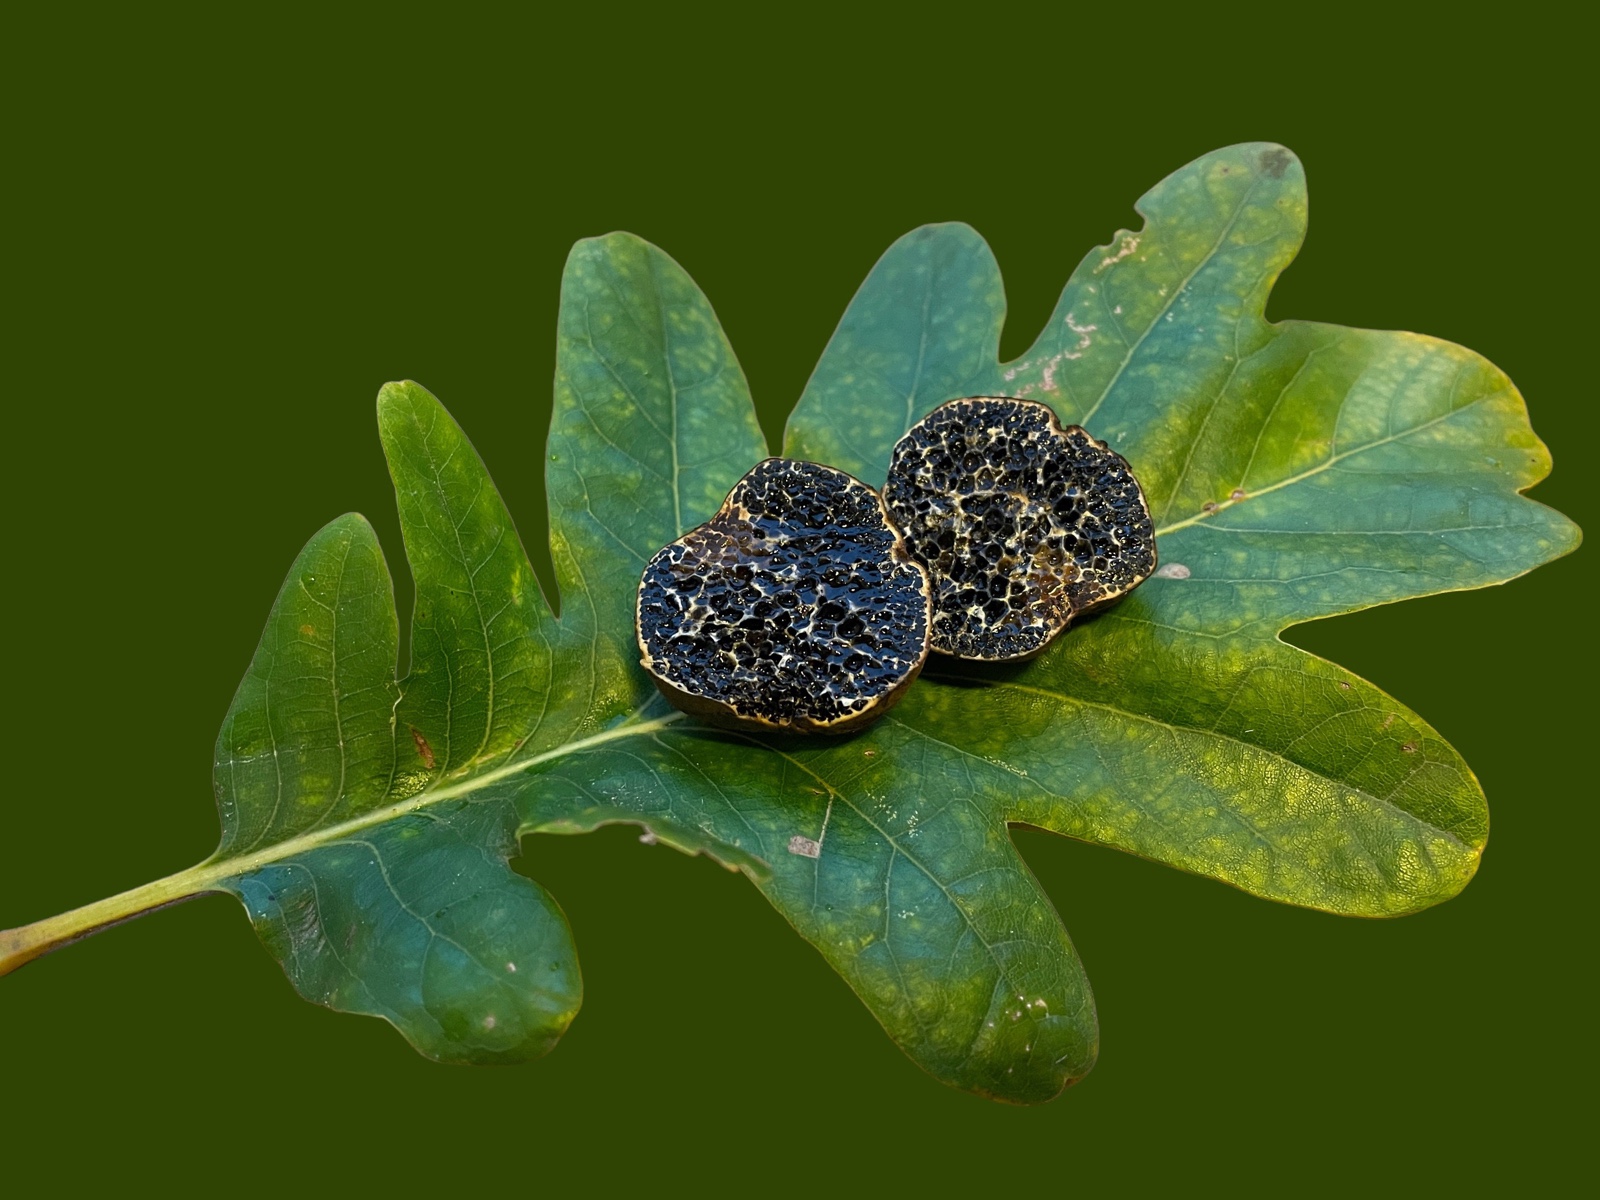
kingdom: Fungi
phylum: Basidiomycota
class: Agaricomycetes
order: Boletales
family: Paxillaceae
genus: Melanogaster
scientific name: Melanogaster ambiguus
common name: lille slimtrøffel
